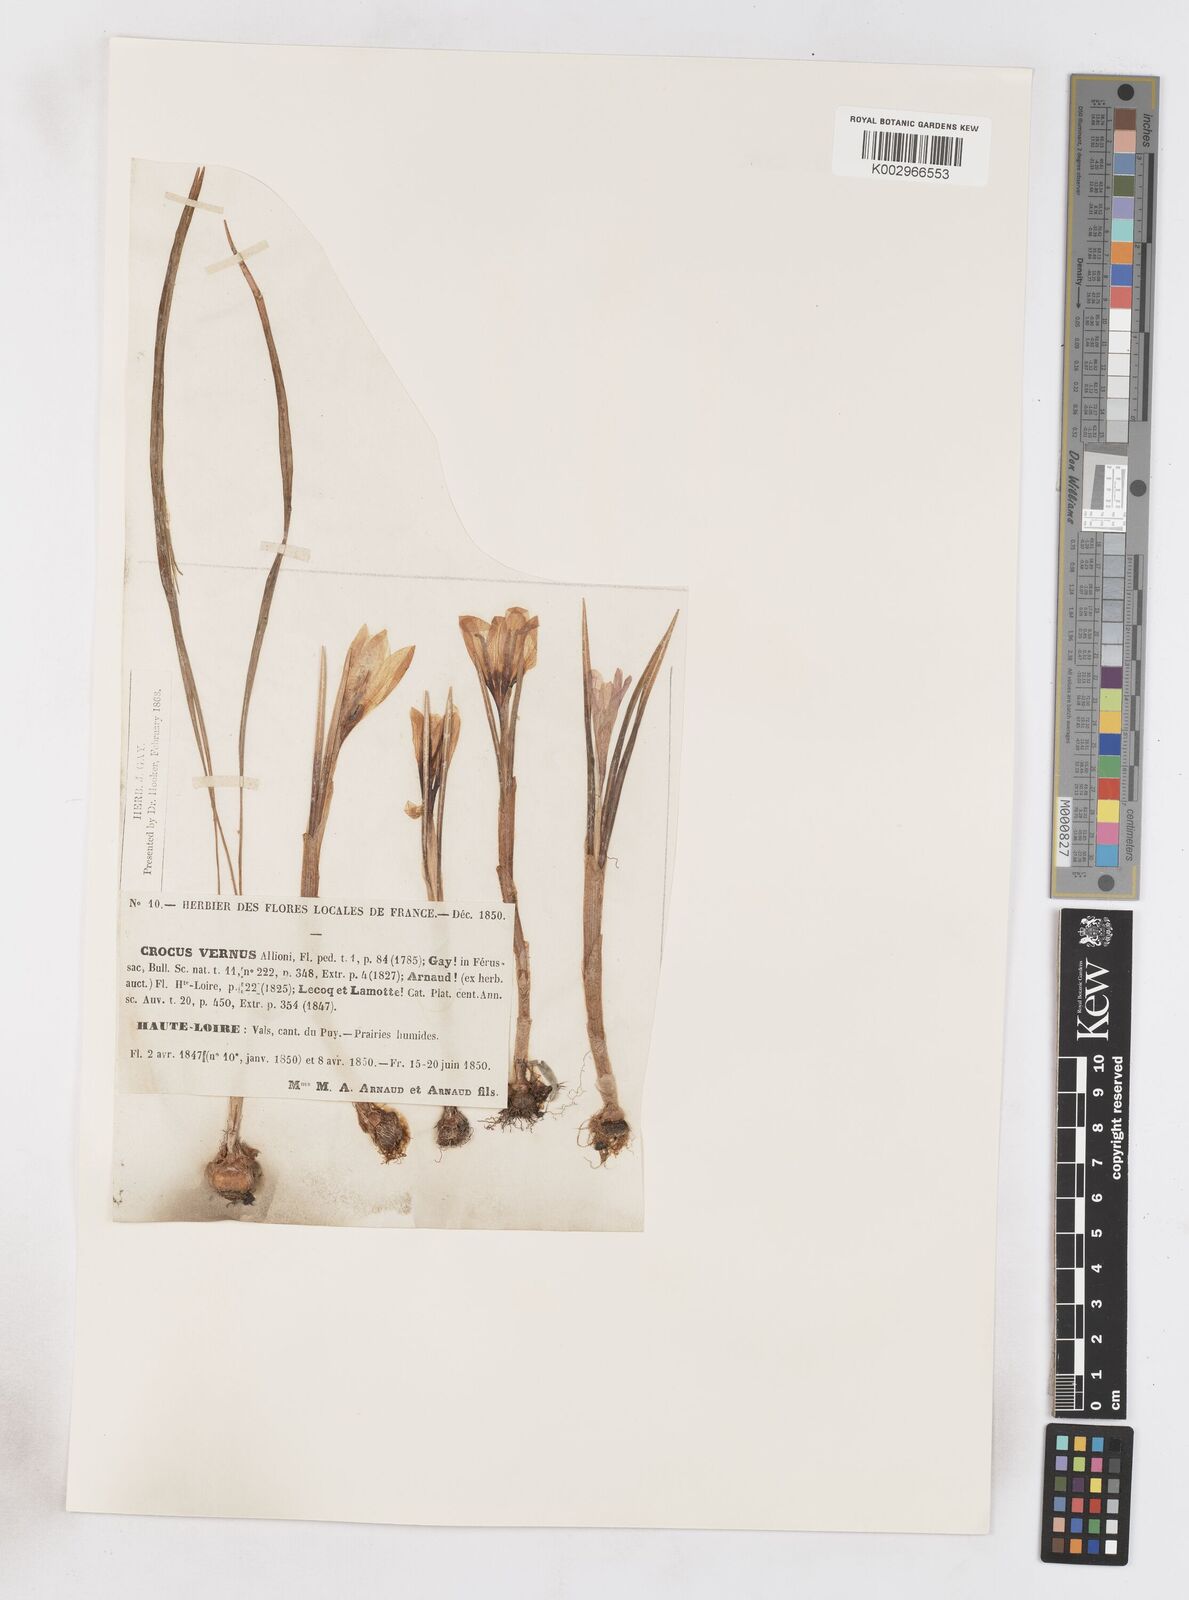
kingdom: Plantae
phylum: Tracheophyta
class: Liliopsida
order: Asparagales
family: Iridaceae
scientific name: Iridaceae
